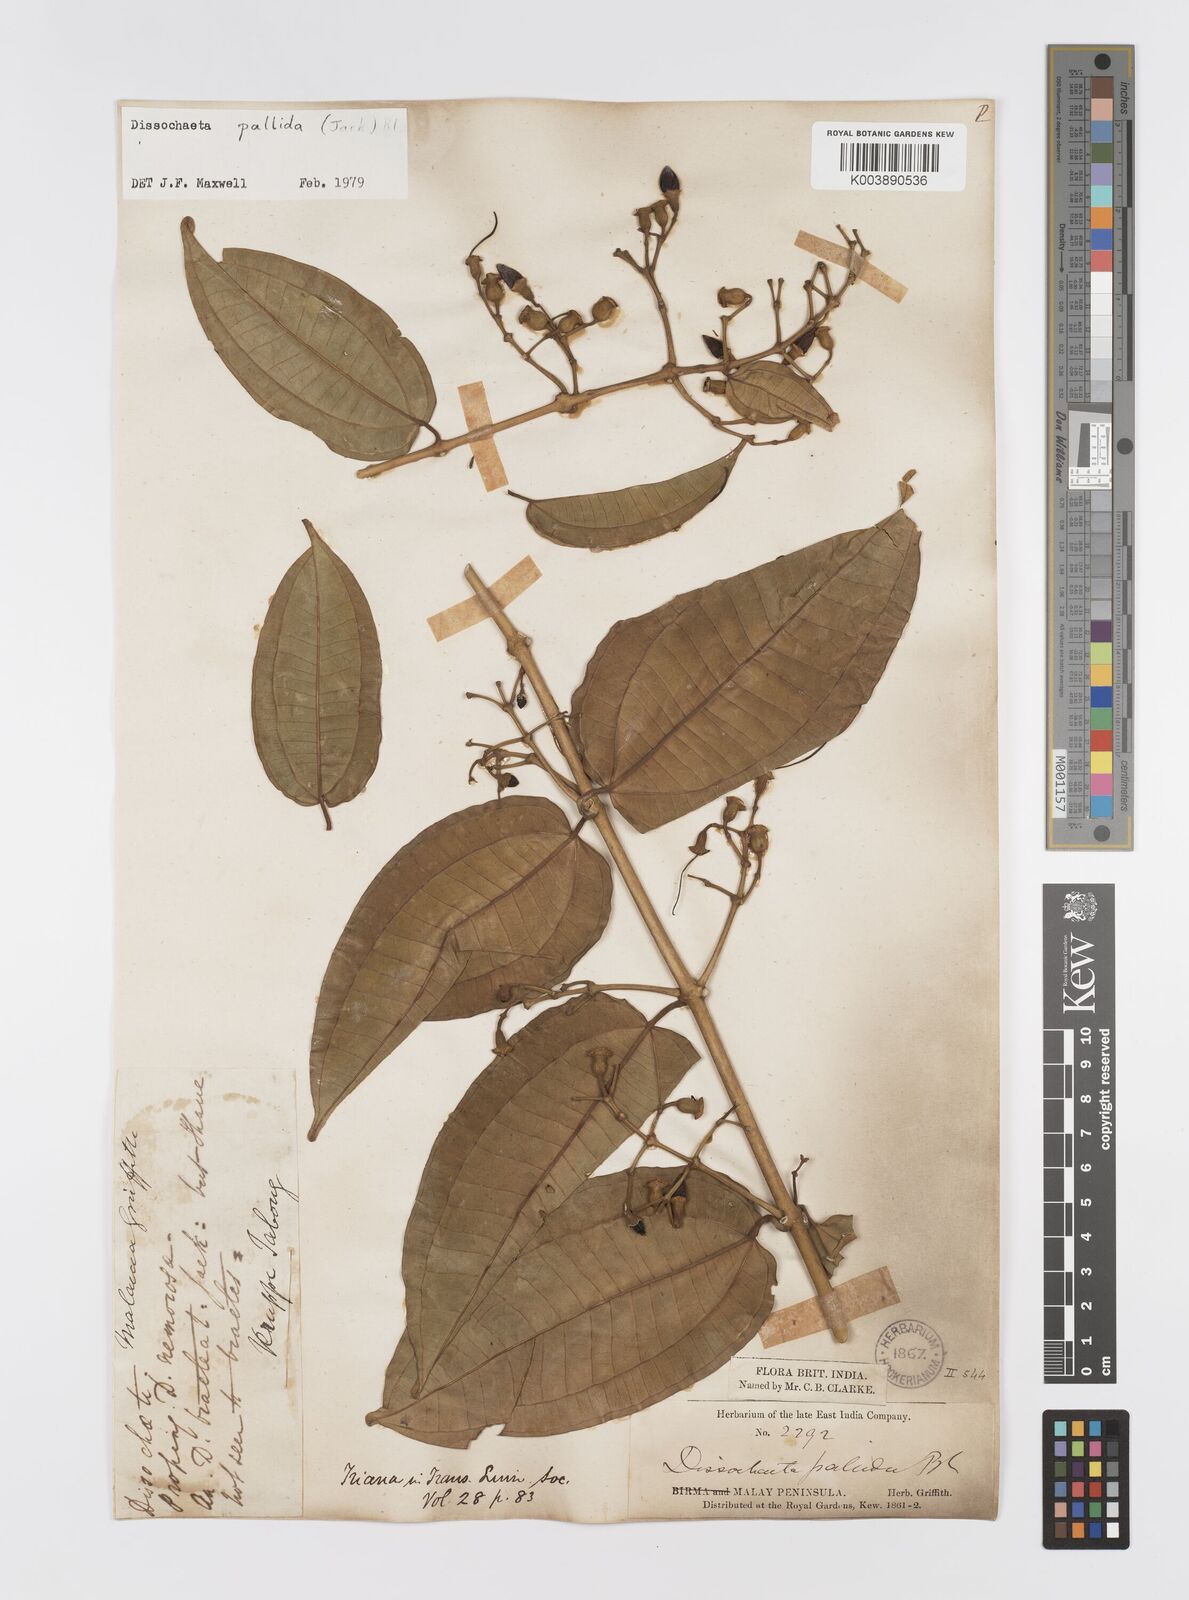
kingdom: Plantae
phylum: Tracheophyta
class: Magnoliopsida
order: Myrtales
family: Melastomataceae
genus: Dissochaeta
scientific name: Dissochaeta pallida
